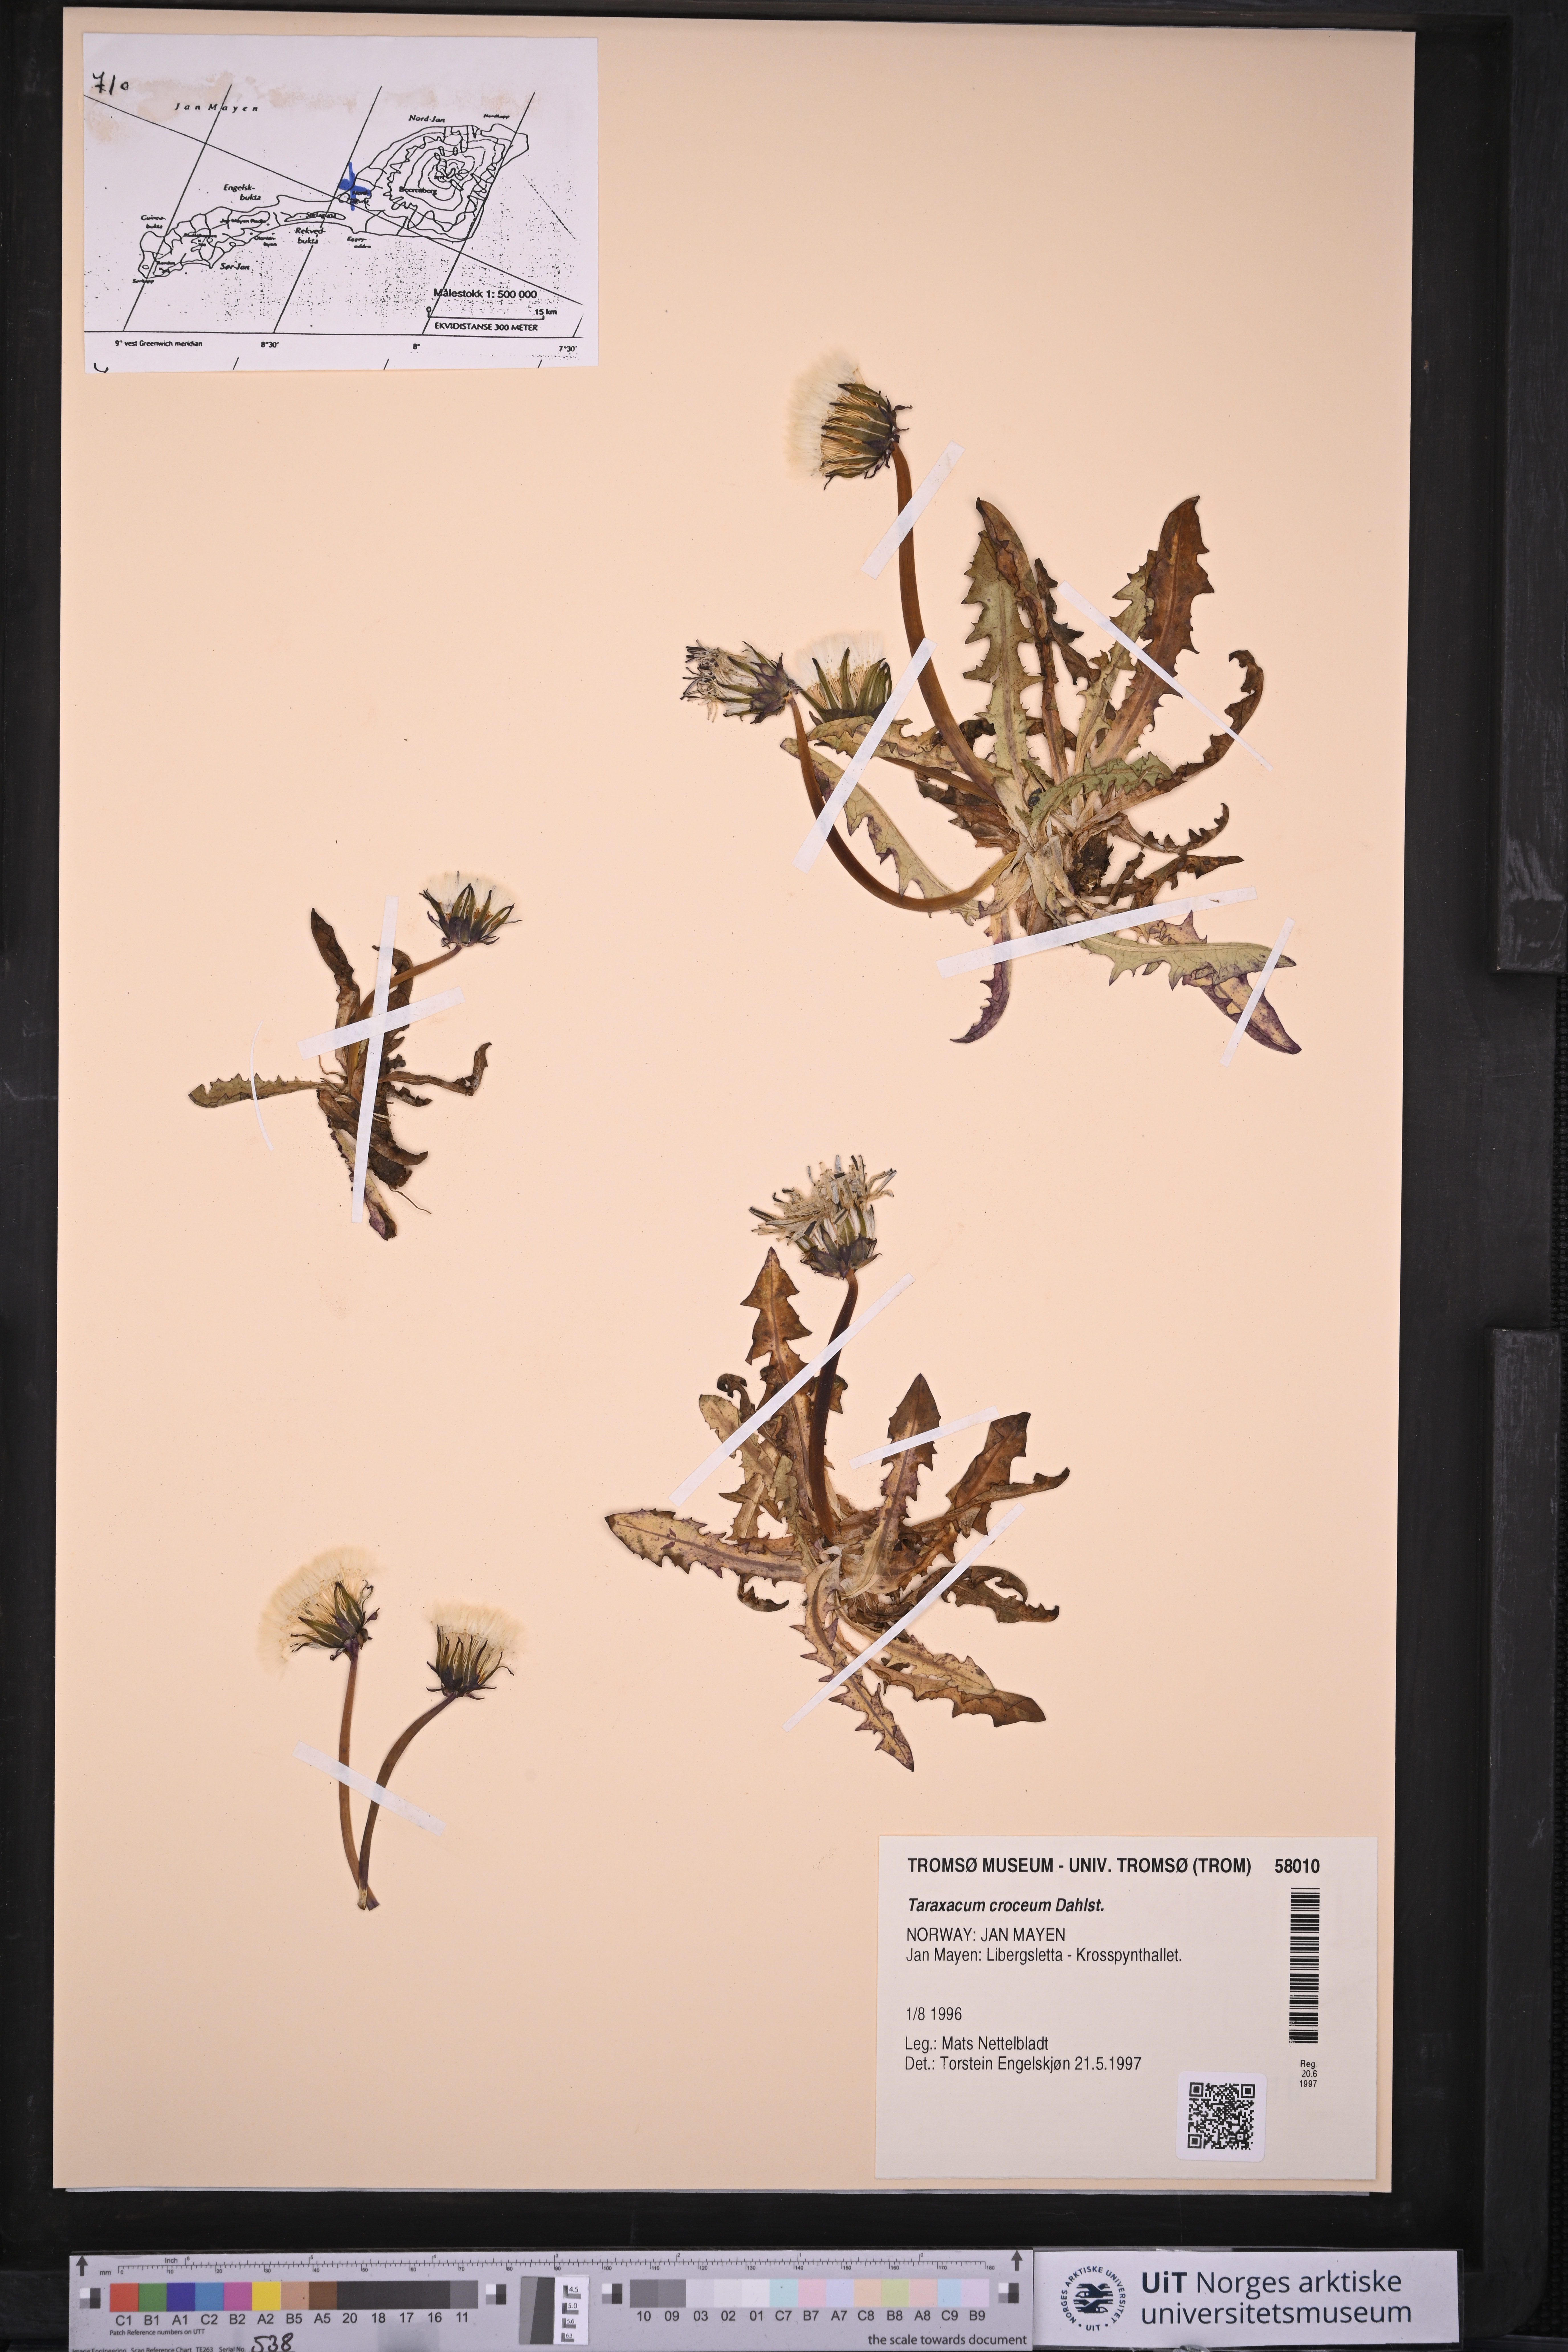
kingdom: Plantae
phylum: Tracheophyta
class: Magnoliopsida
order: Asterales
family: Asteraceae
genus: Taraxacum
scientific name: Taraxacum croceum
